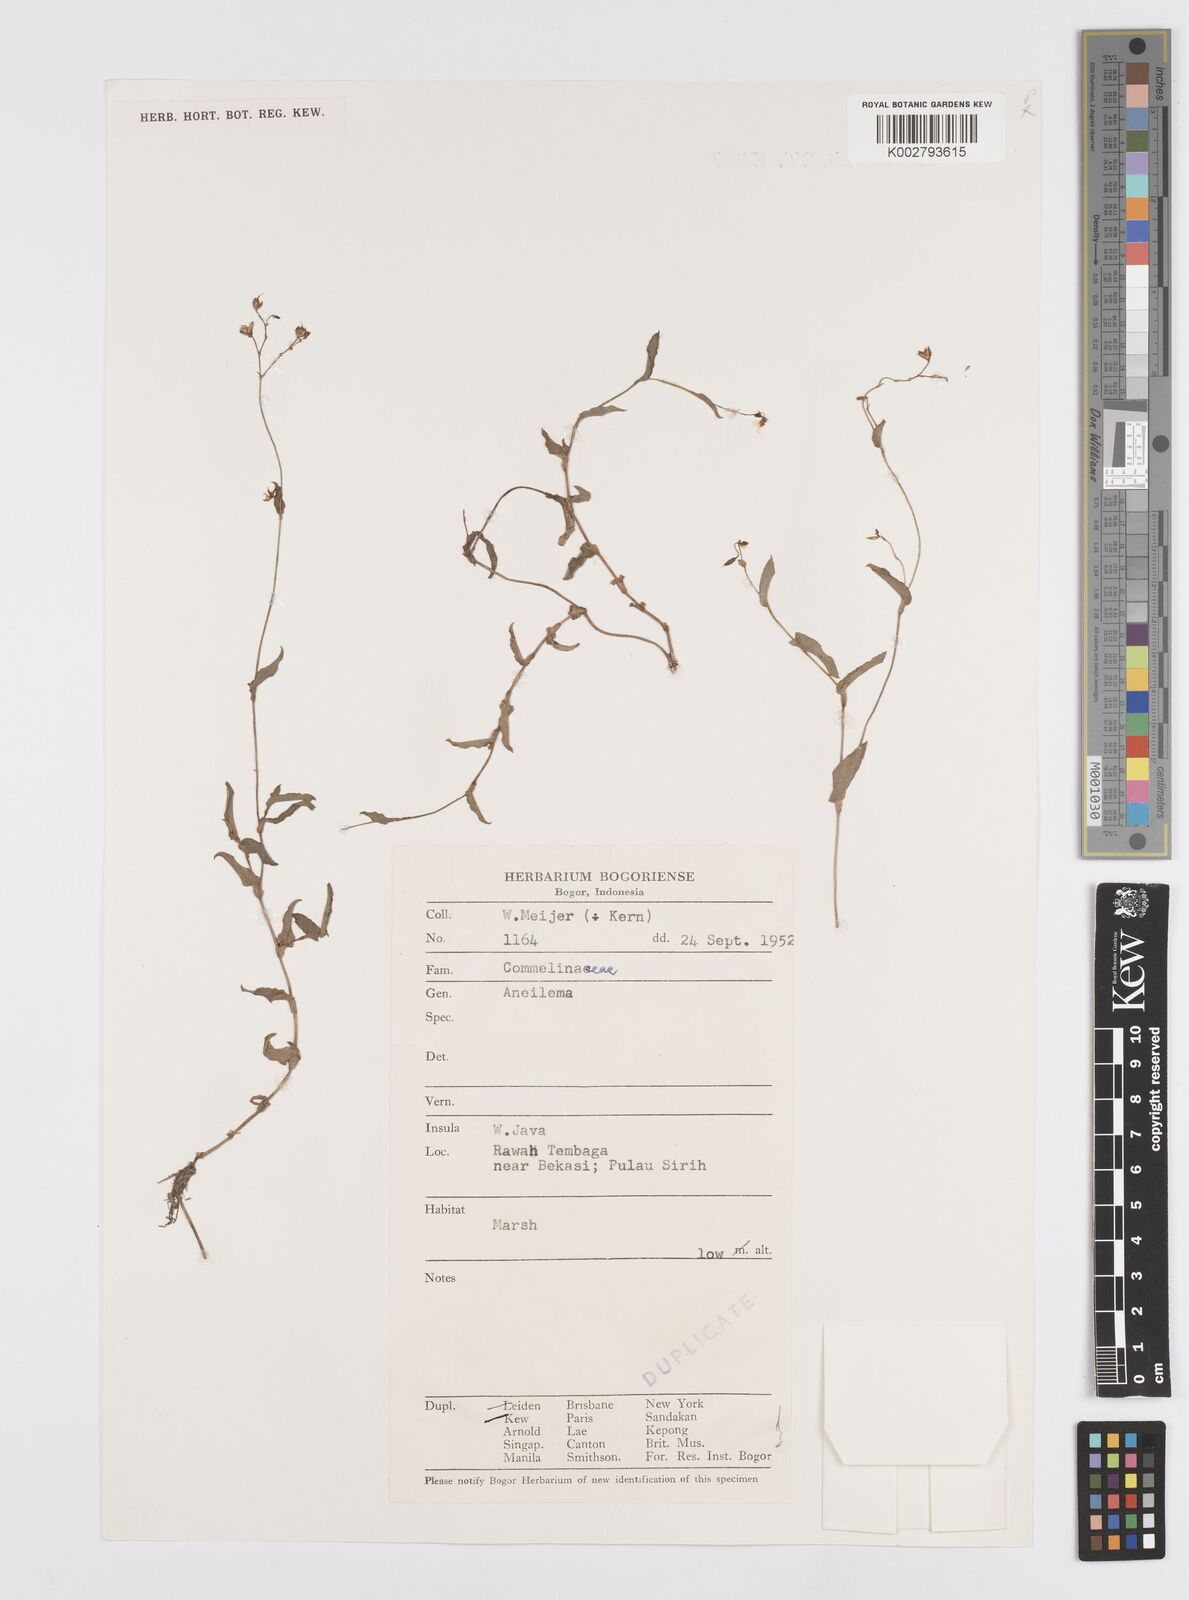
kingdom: Plantae
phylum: Tracheophyta
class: Liliopsida
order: Commelinales
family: Commelinaceae
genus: Murdannia
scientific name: Murdannia
